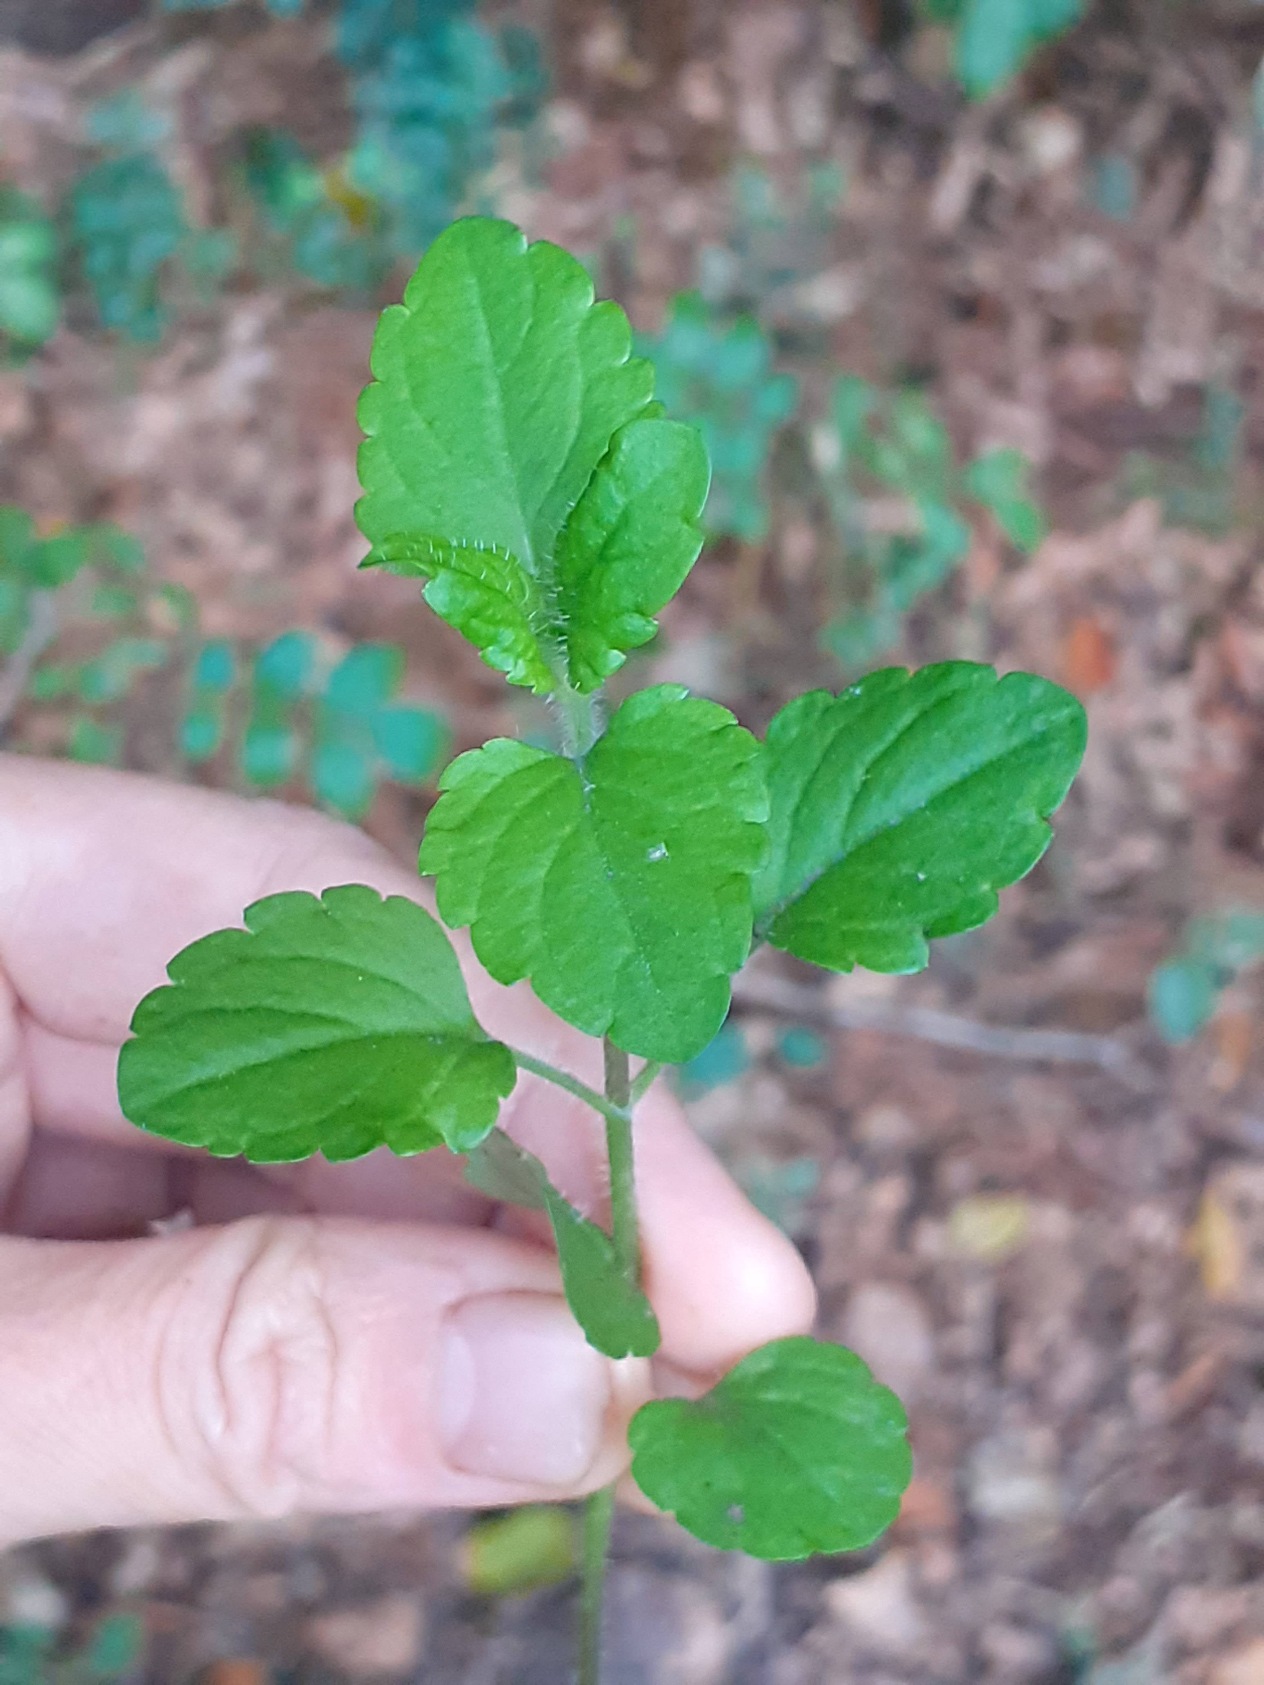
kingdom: Plantae
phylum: Tracheophyta
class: Magnoliopsida
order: Lamiales
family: Plantaginaceae
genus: Veronica
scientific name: Veronica montana
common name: Bjerg-ærenpris
